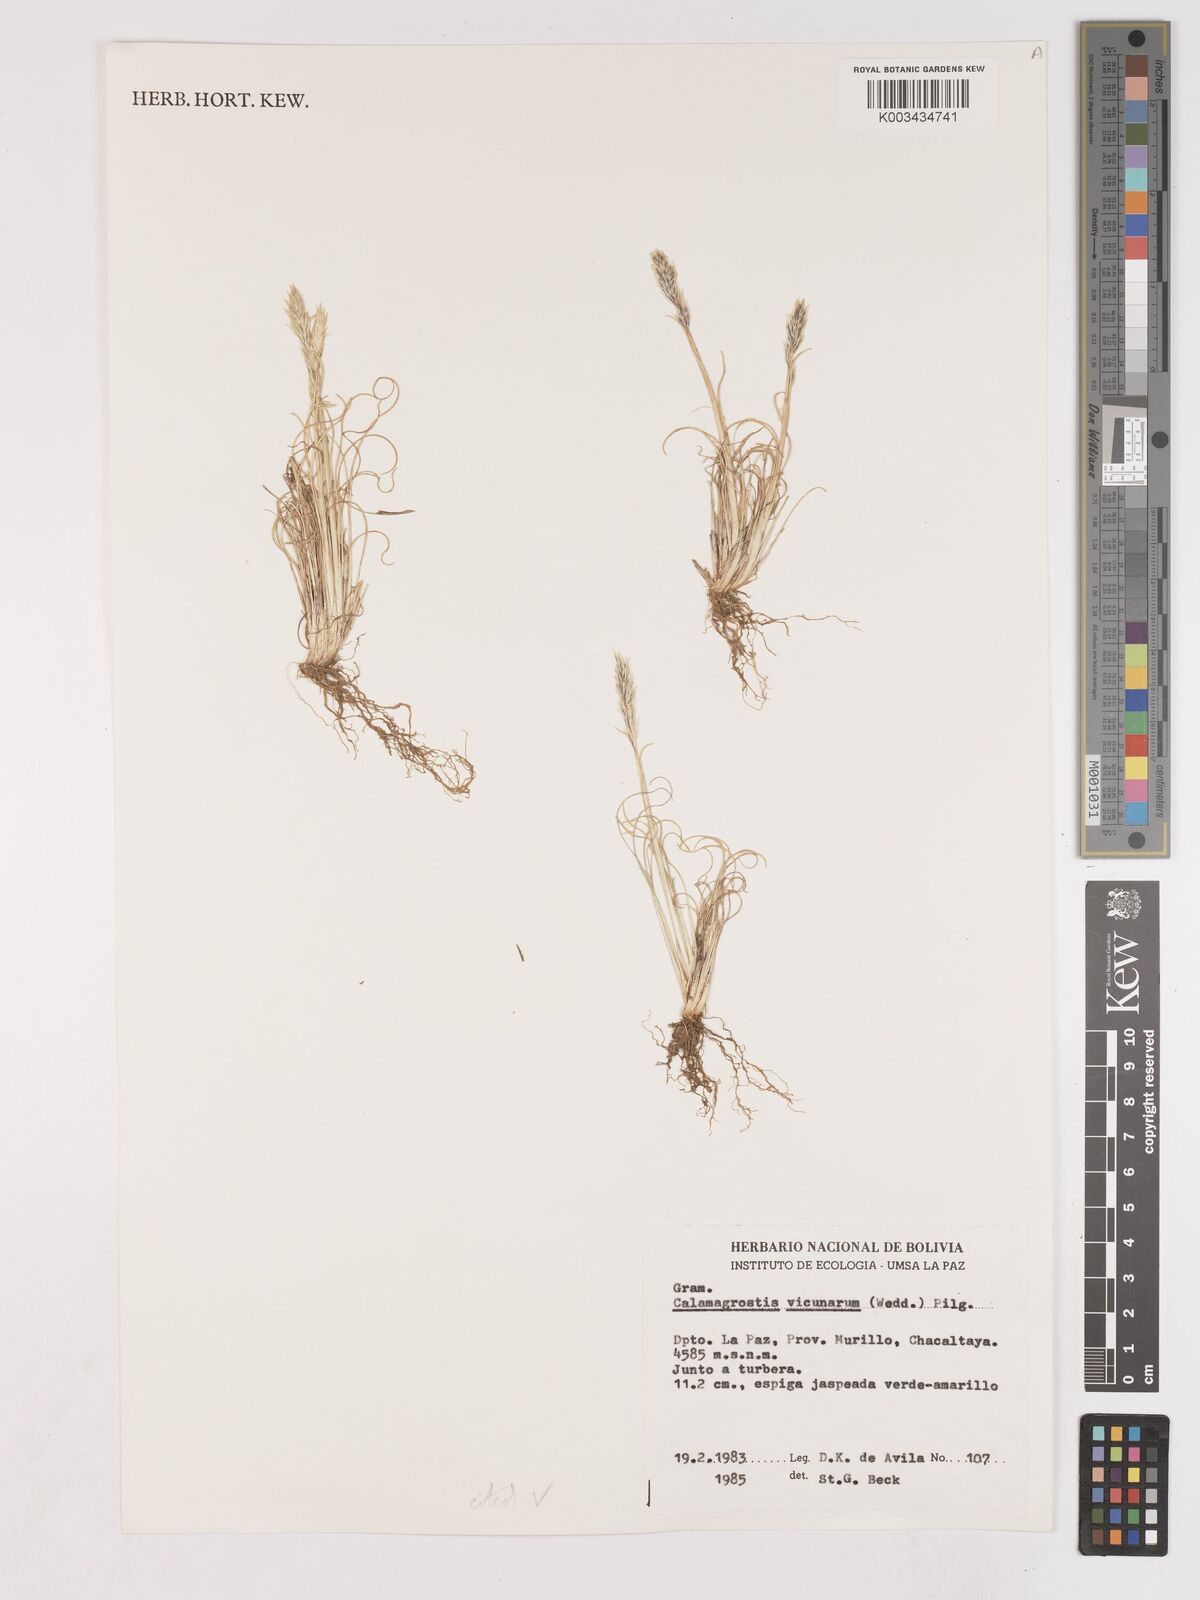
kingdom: Plantae
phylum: Tracheophyta
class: Liliopsida
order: Poales
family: Poaceae
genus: Cinnagrostis
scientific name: Cinnagrostis vicunarum
